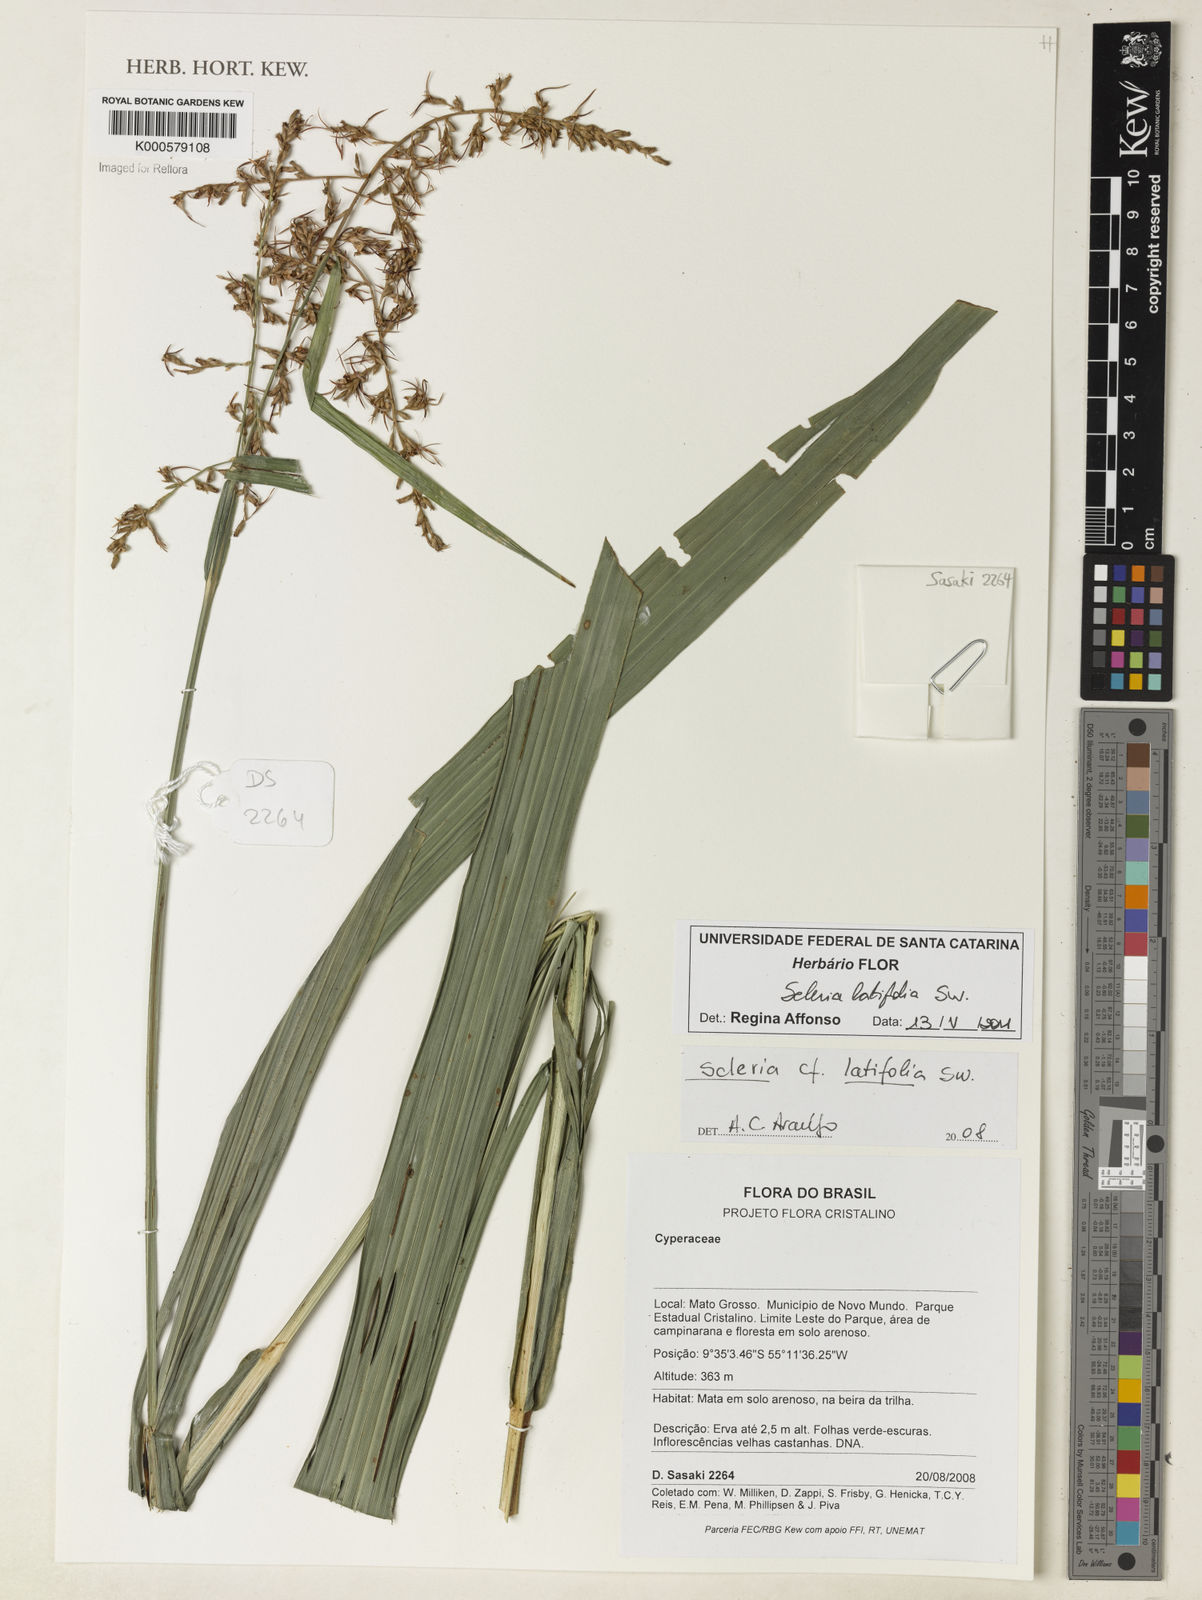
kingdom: Plantae
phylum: Tracheophyta
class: Liliopsida
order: Poales
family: Cyperaceae
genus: Scleria
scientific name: Scleria latifolia
